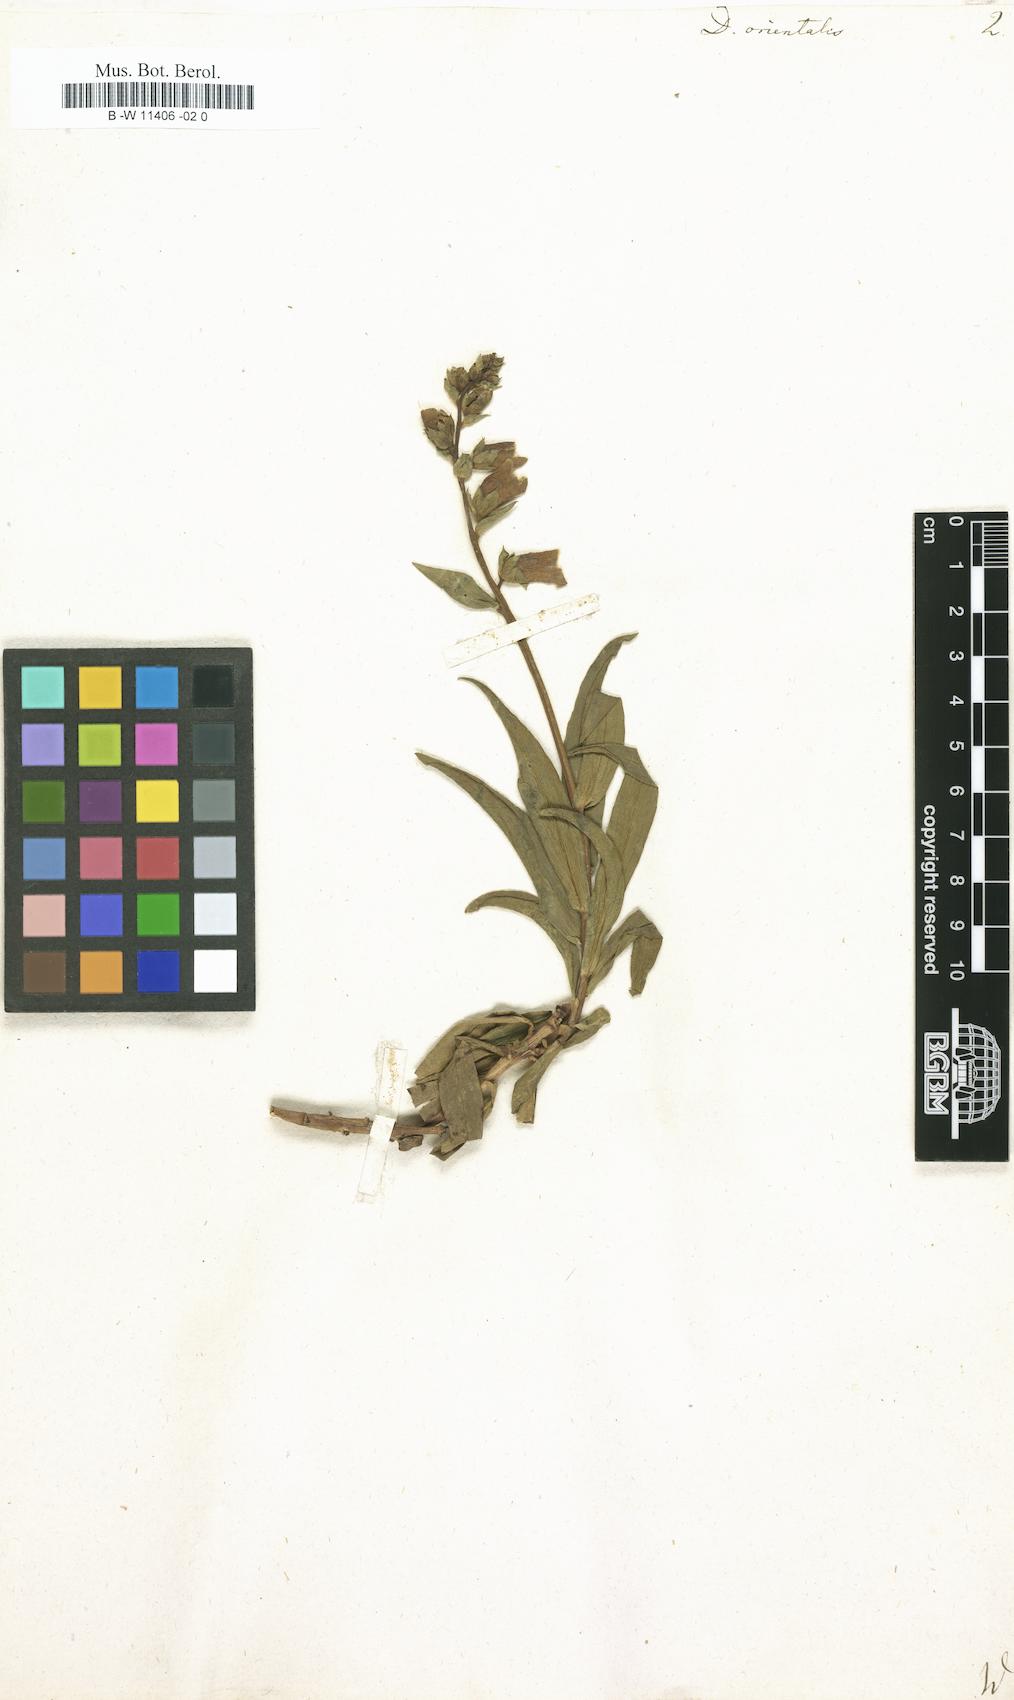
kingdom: Plantae
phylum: Tracheophyta
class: Magnoliopsida
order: Lamiales
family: Plantaginaceae
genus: Digitalis
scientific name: Digitalis
